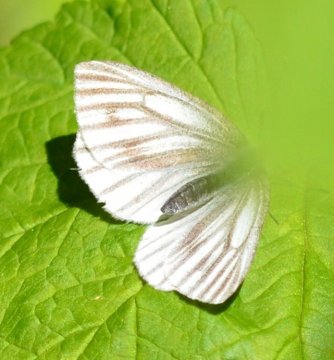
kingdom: Animalia
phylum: Arthropoda
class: Insecta
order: Lepidoptera
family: Pieridae
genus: Pieris
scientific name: Pieris angelika
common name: Arctic White
